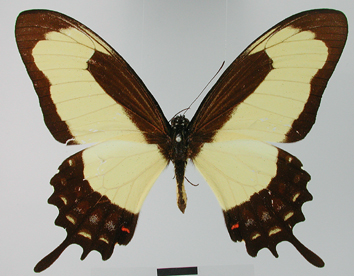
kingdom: Animalia
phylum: Arthropoda
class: Insecta
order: Lepidoptera
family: Papilionidae
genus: Papilio
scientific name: Papilio garleppi
